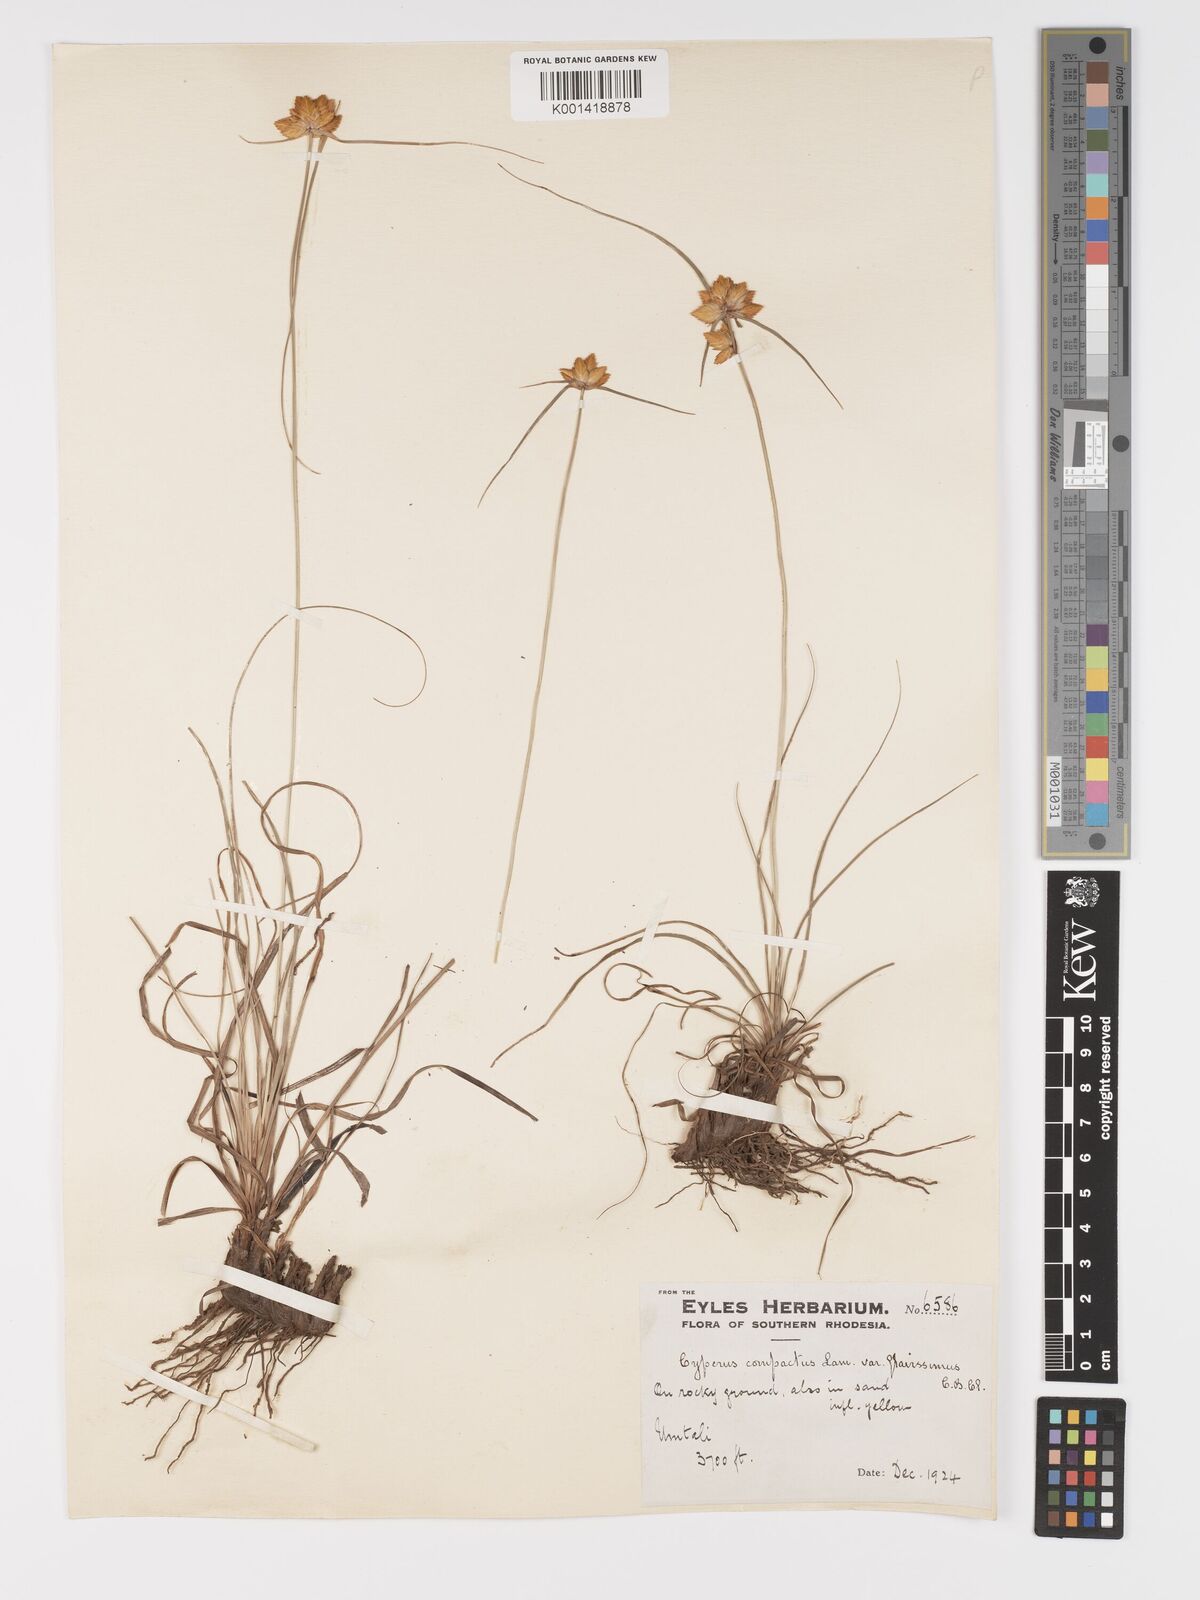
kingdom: Plantae
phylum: Tracheophyta
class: Liliopsida
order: Poales
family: Cyperaceae
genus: Cyperus
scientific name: Cyperus sphaerocephalus
